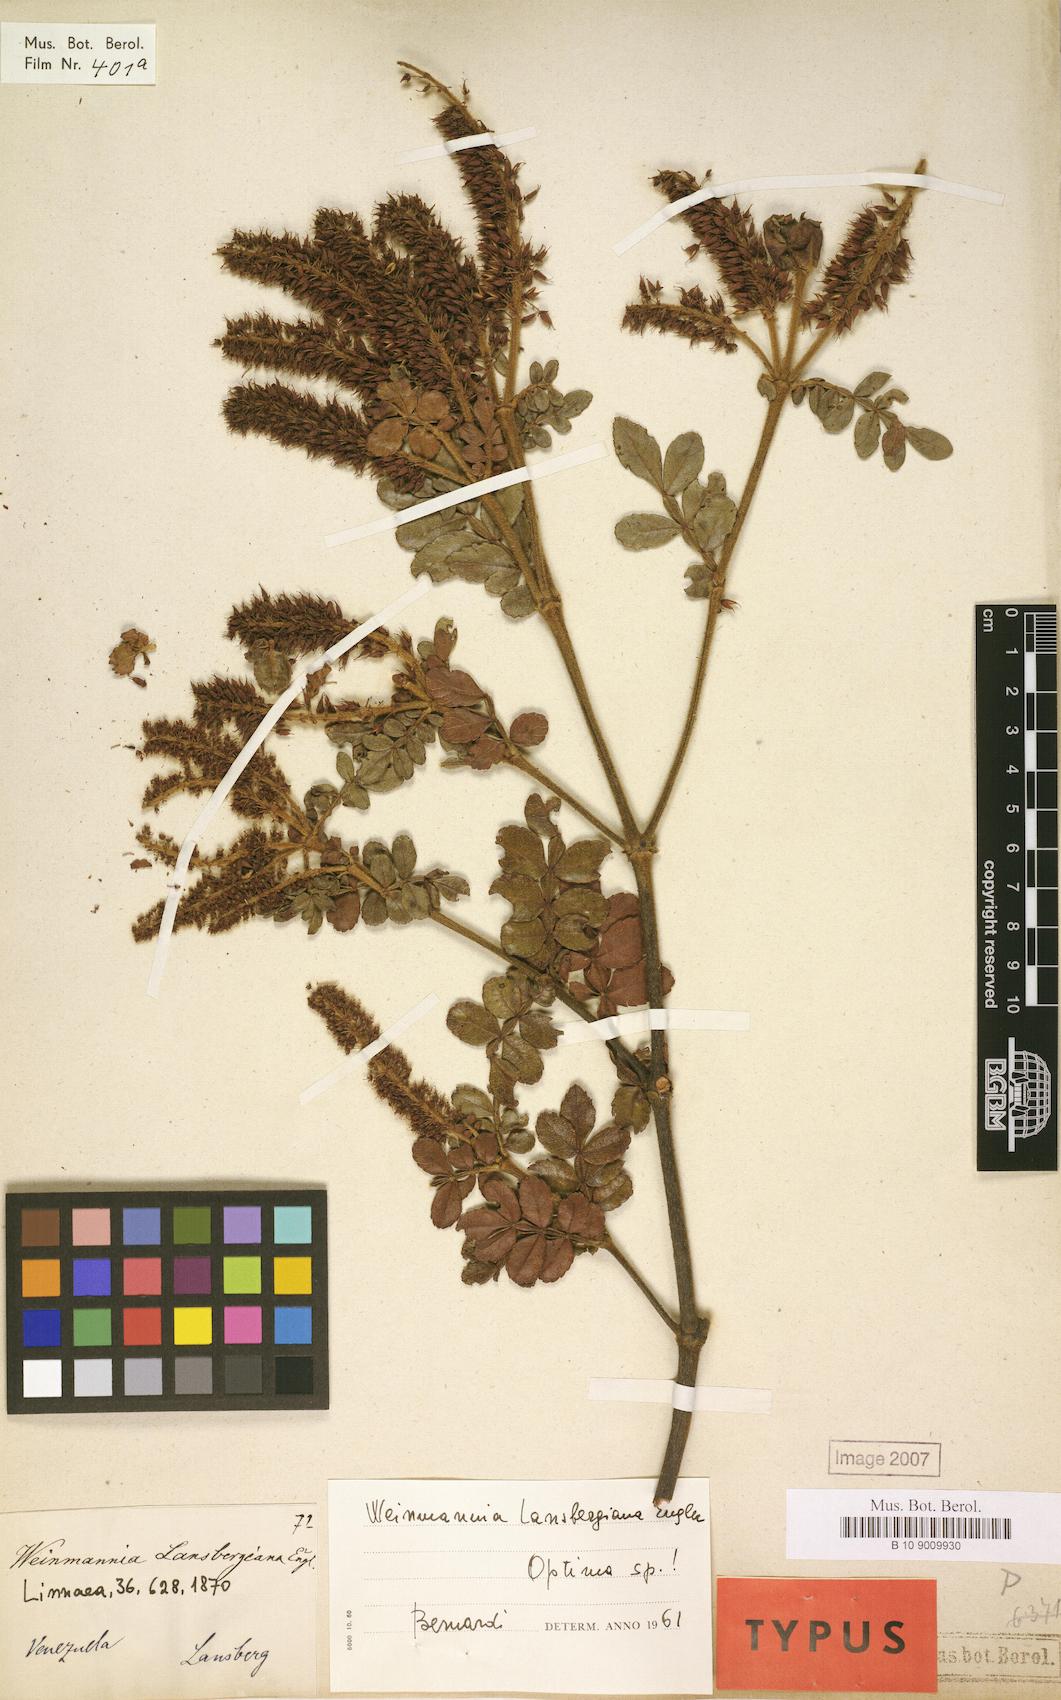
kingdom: Plantae
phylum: Tracheophyta
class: Magnoliopsida
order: Oxalidales
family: Cunoniaceae
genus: Weinmannia
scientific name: Weinmannia lansbergiana
